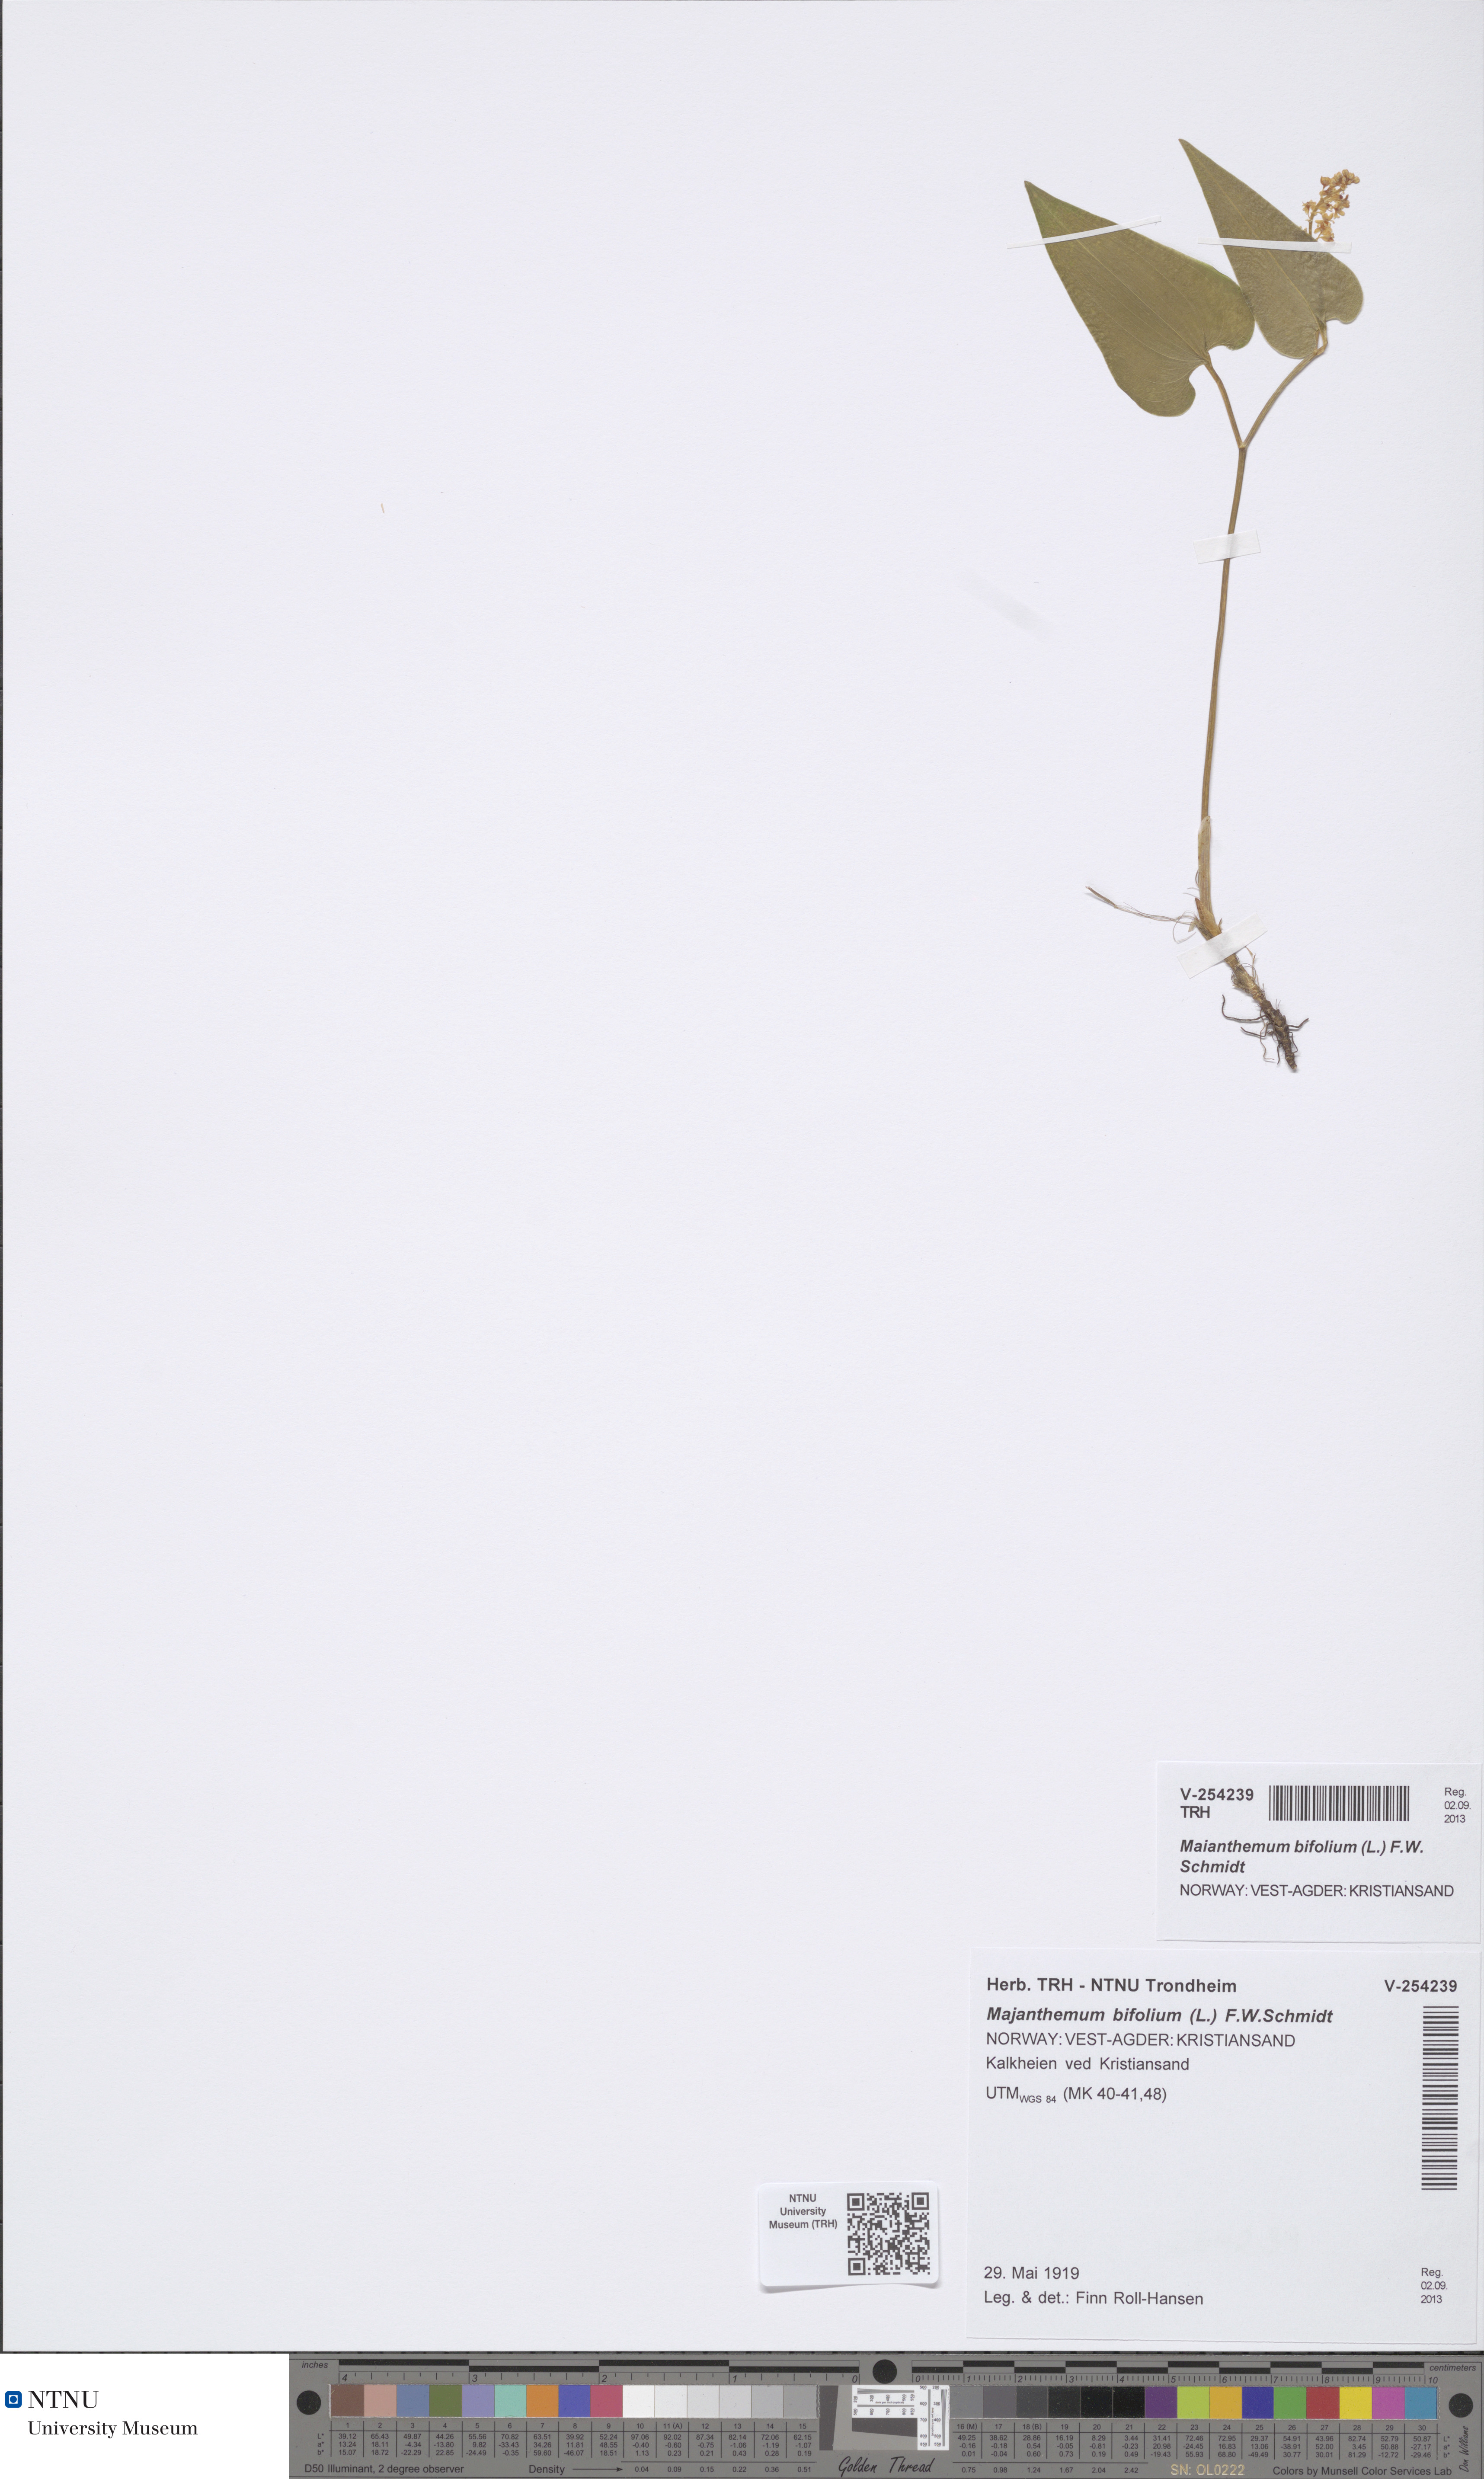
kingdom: Plantae
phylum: Tracheophyta
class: Liliopsida
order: Asparagales
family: Asparagaceae
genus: Maianthemum
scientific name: Maianthemum bifolium
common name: May lily
